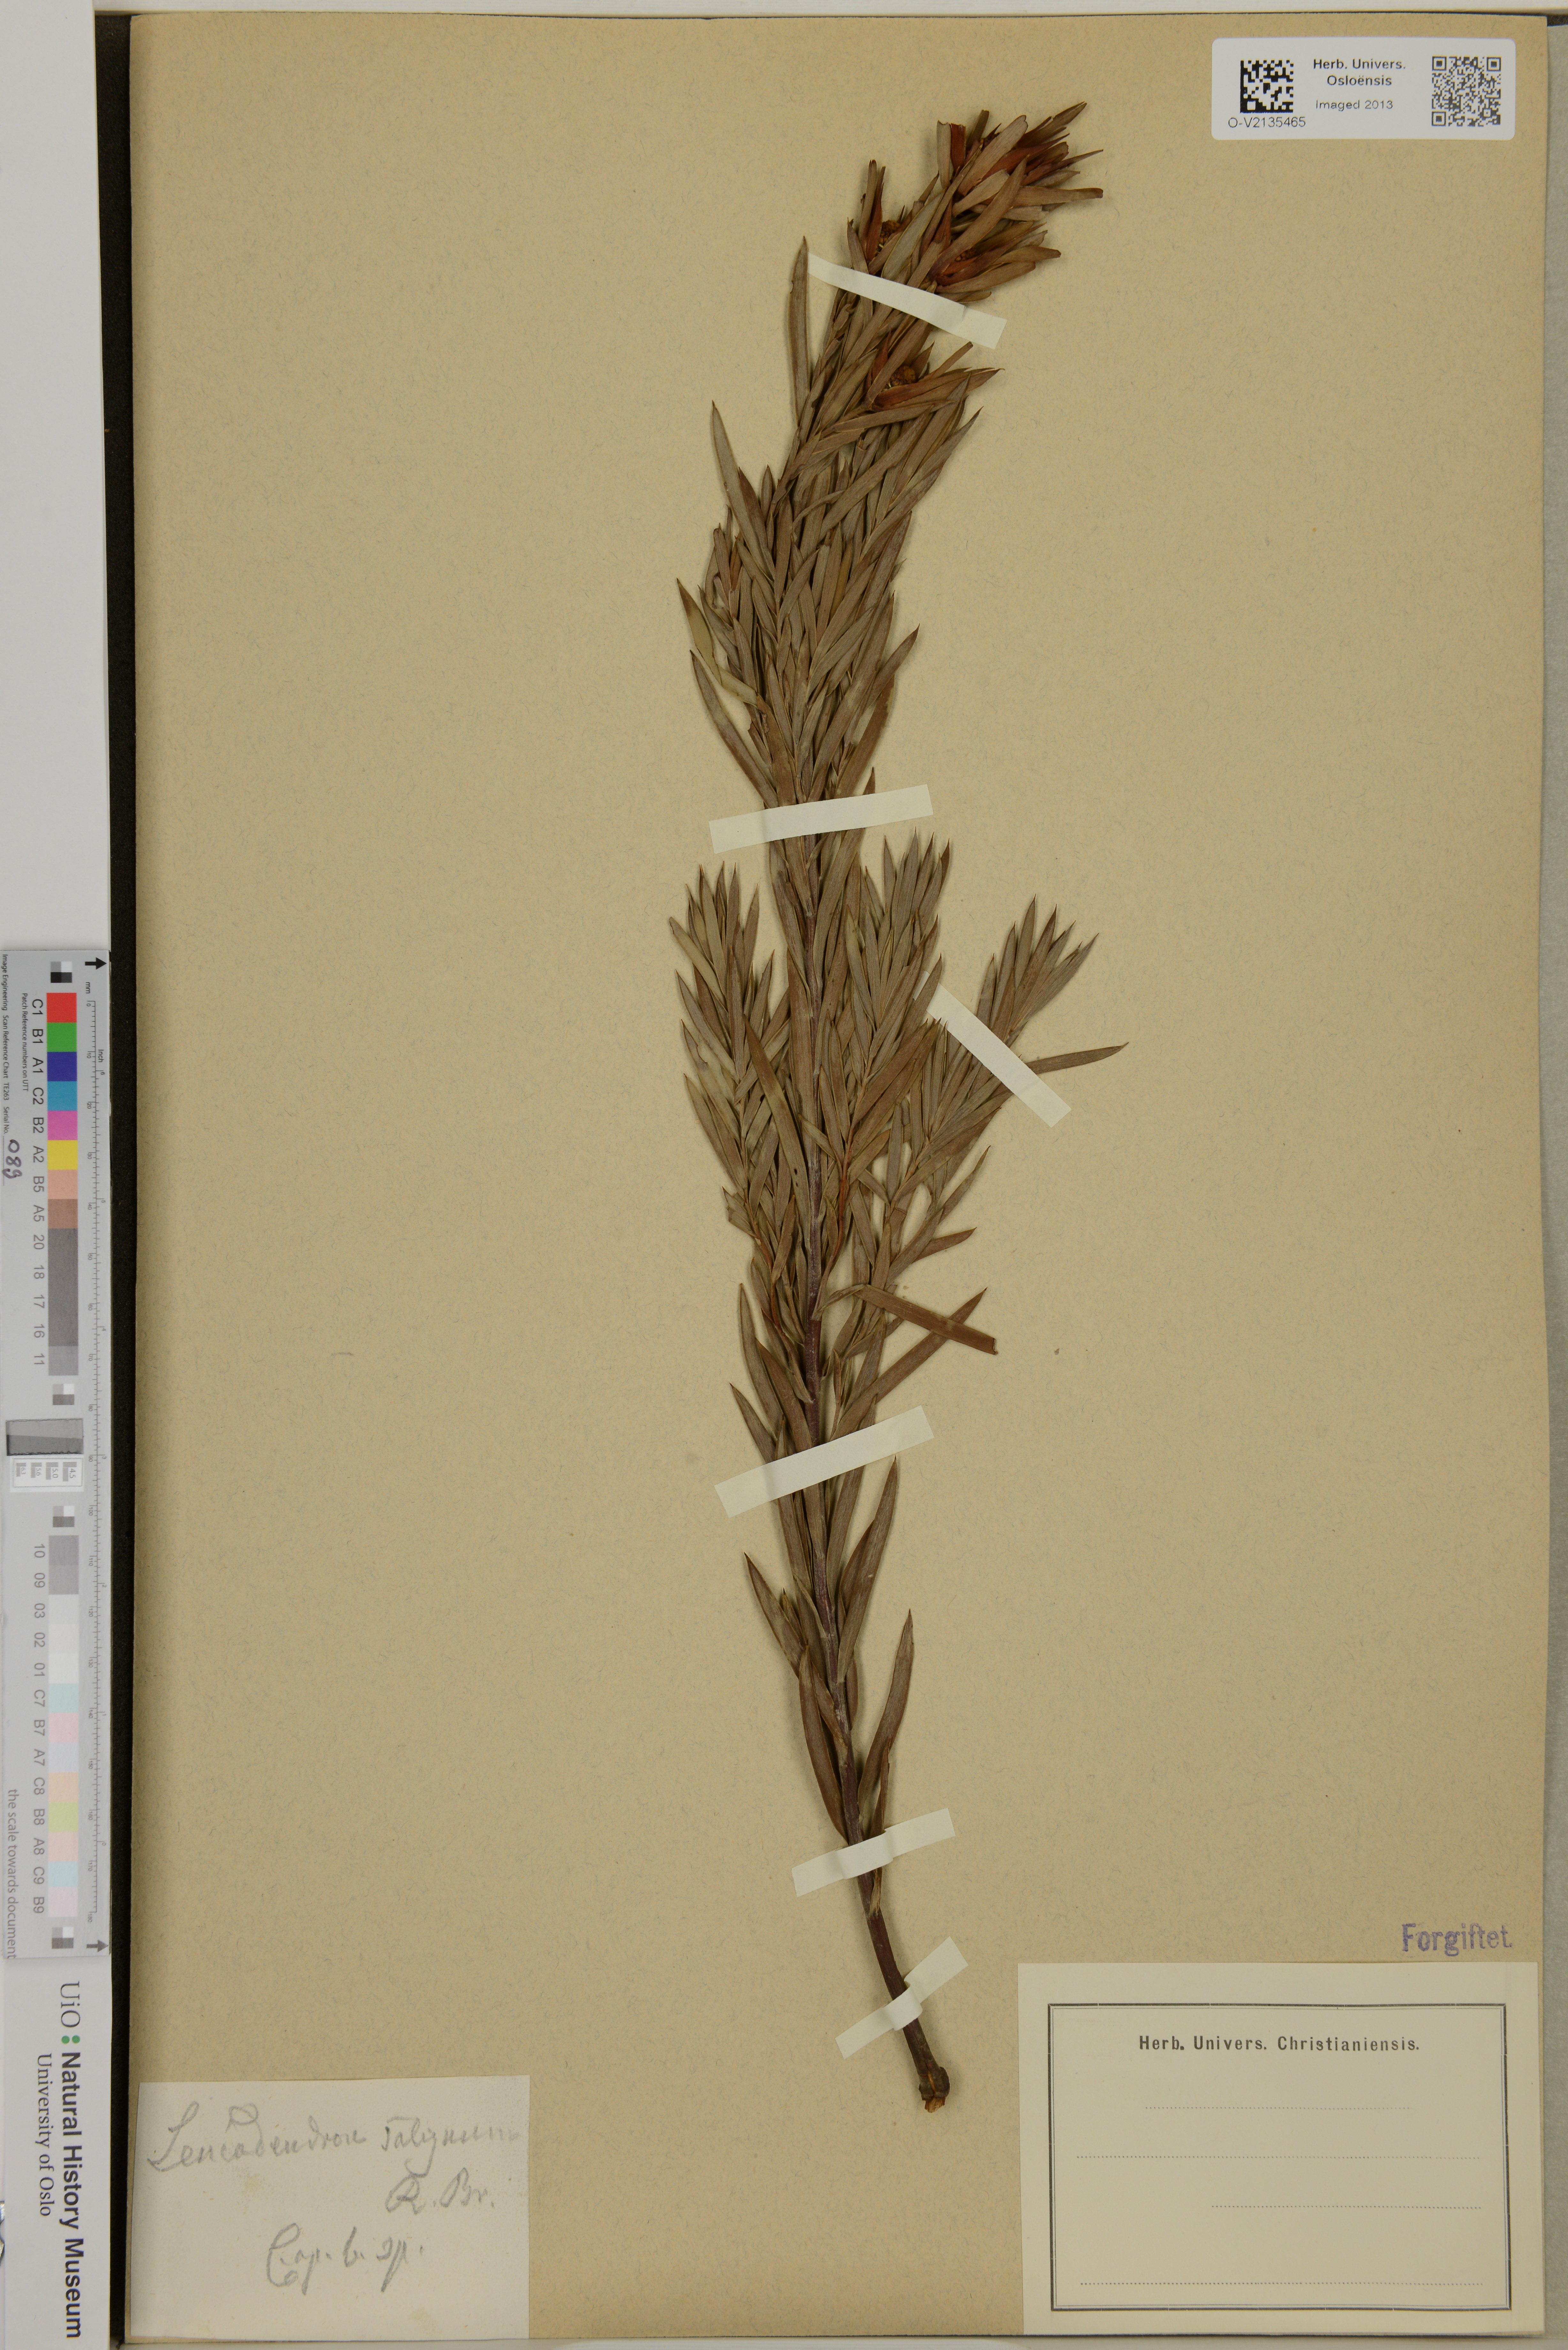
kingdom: Plantae
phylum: Tracheophyta
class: Magnoliopsida
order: Proteales
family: Proteaceae
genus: Leucadendron
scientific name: Leucadendron salignum
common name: Common sunshine conebush
